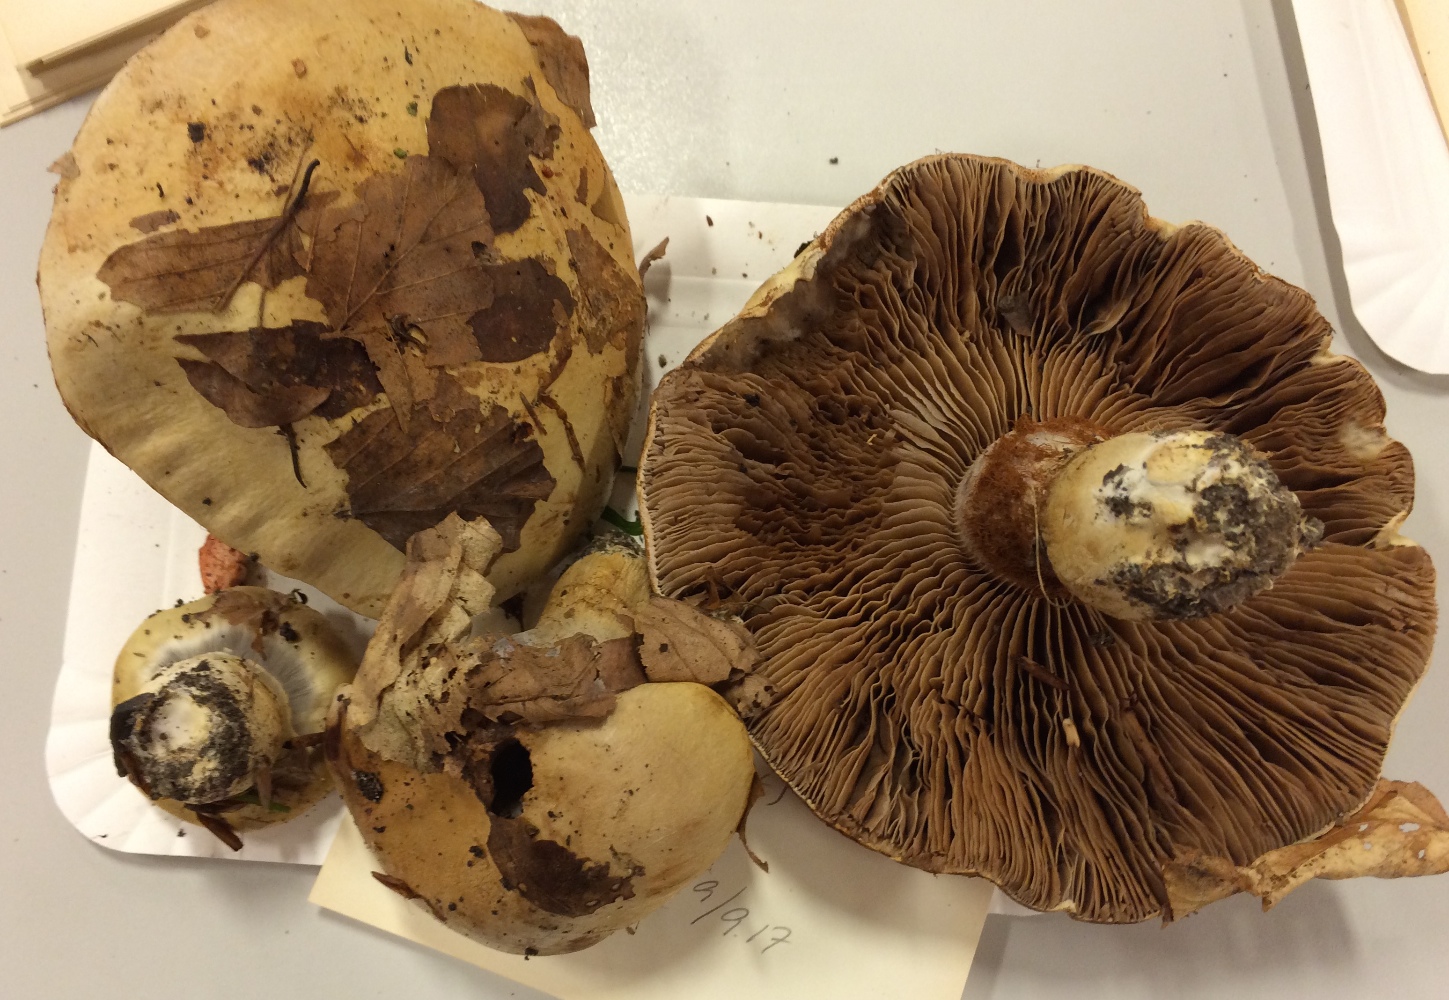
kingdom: Fungi
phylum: Basidiomycota
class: Agaricomycetes
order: Agaricales
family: Cortinariaceae
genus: Cortinarius
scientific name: Cortinarius anserinus
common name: bøge-slørhat
